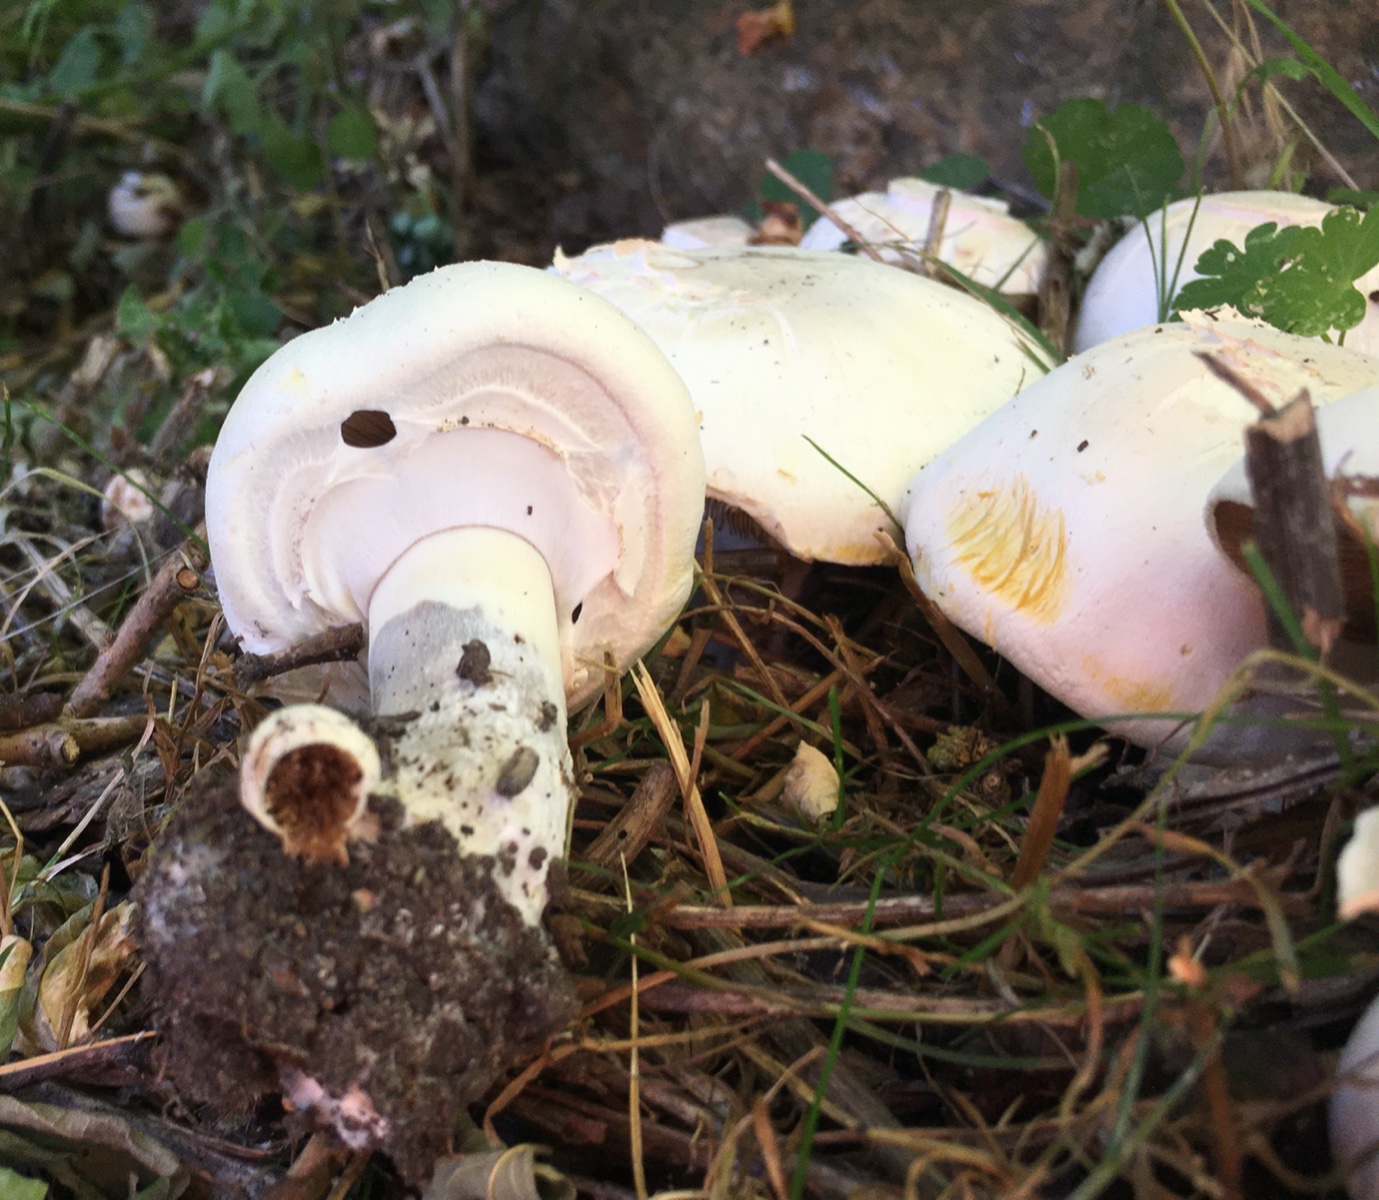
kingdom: Fungi
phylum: Basidiomycota
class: Agaricomycetes
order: Agaricales
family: Agaricaceae
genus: Agaricus
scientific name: Agaricus xanthodermus
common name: karbol-champignon
